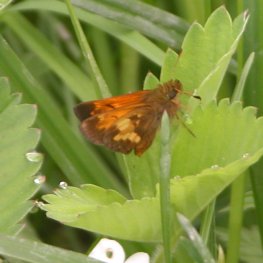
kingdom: Animalia
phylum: Arthropoda
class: Insecta
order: Lepidoptera
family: Hesperiidae
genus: Lon
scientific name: Lon hobomok
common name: Hobomok Skipper
